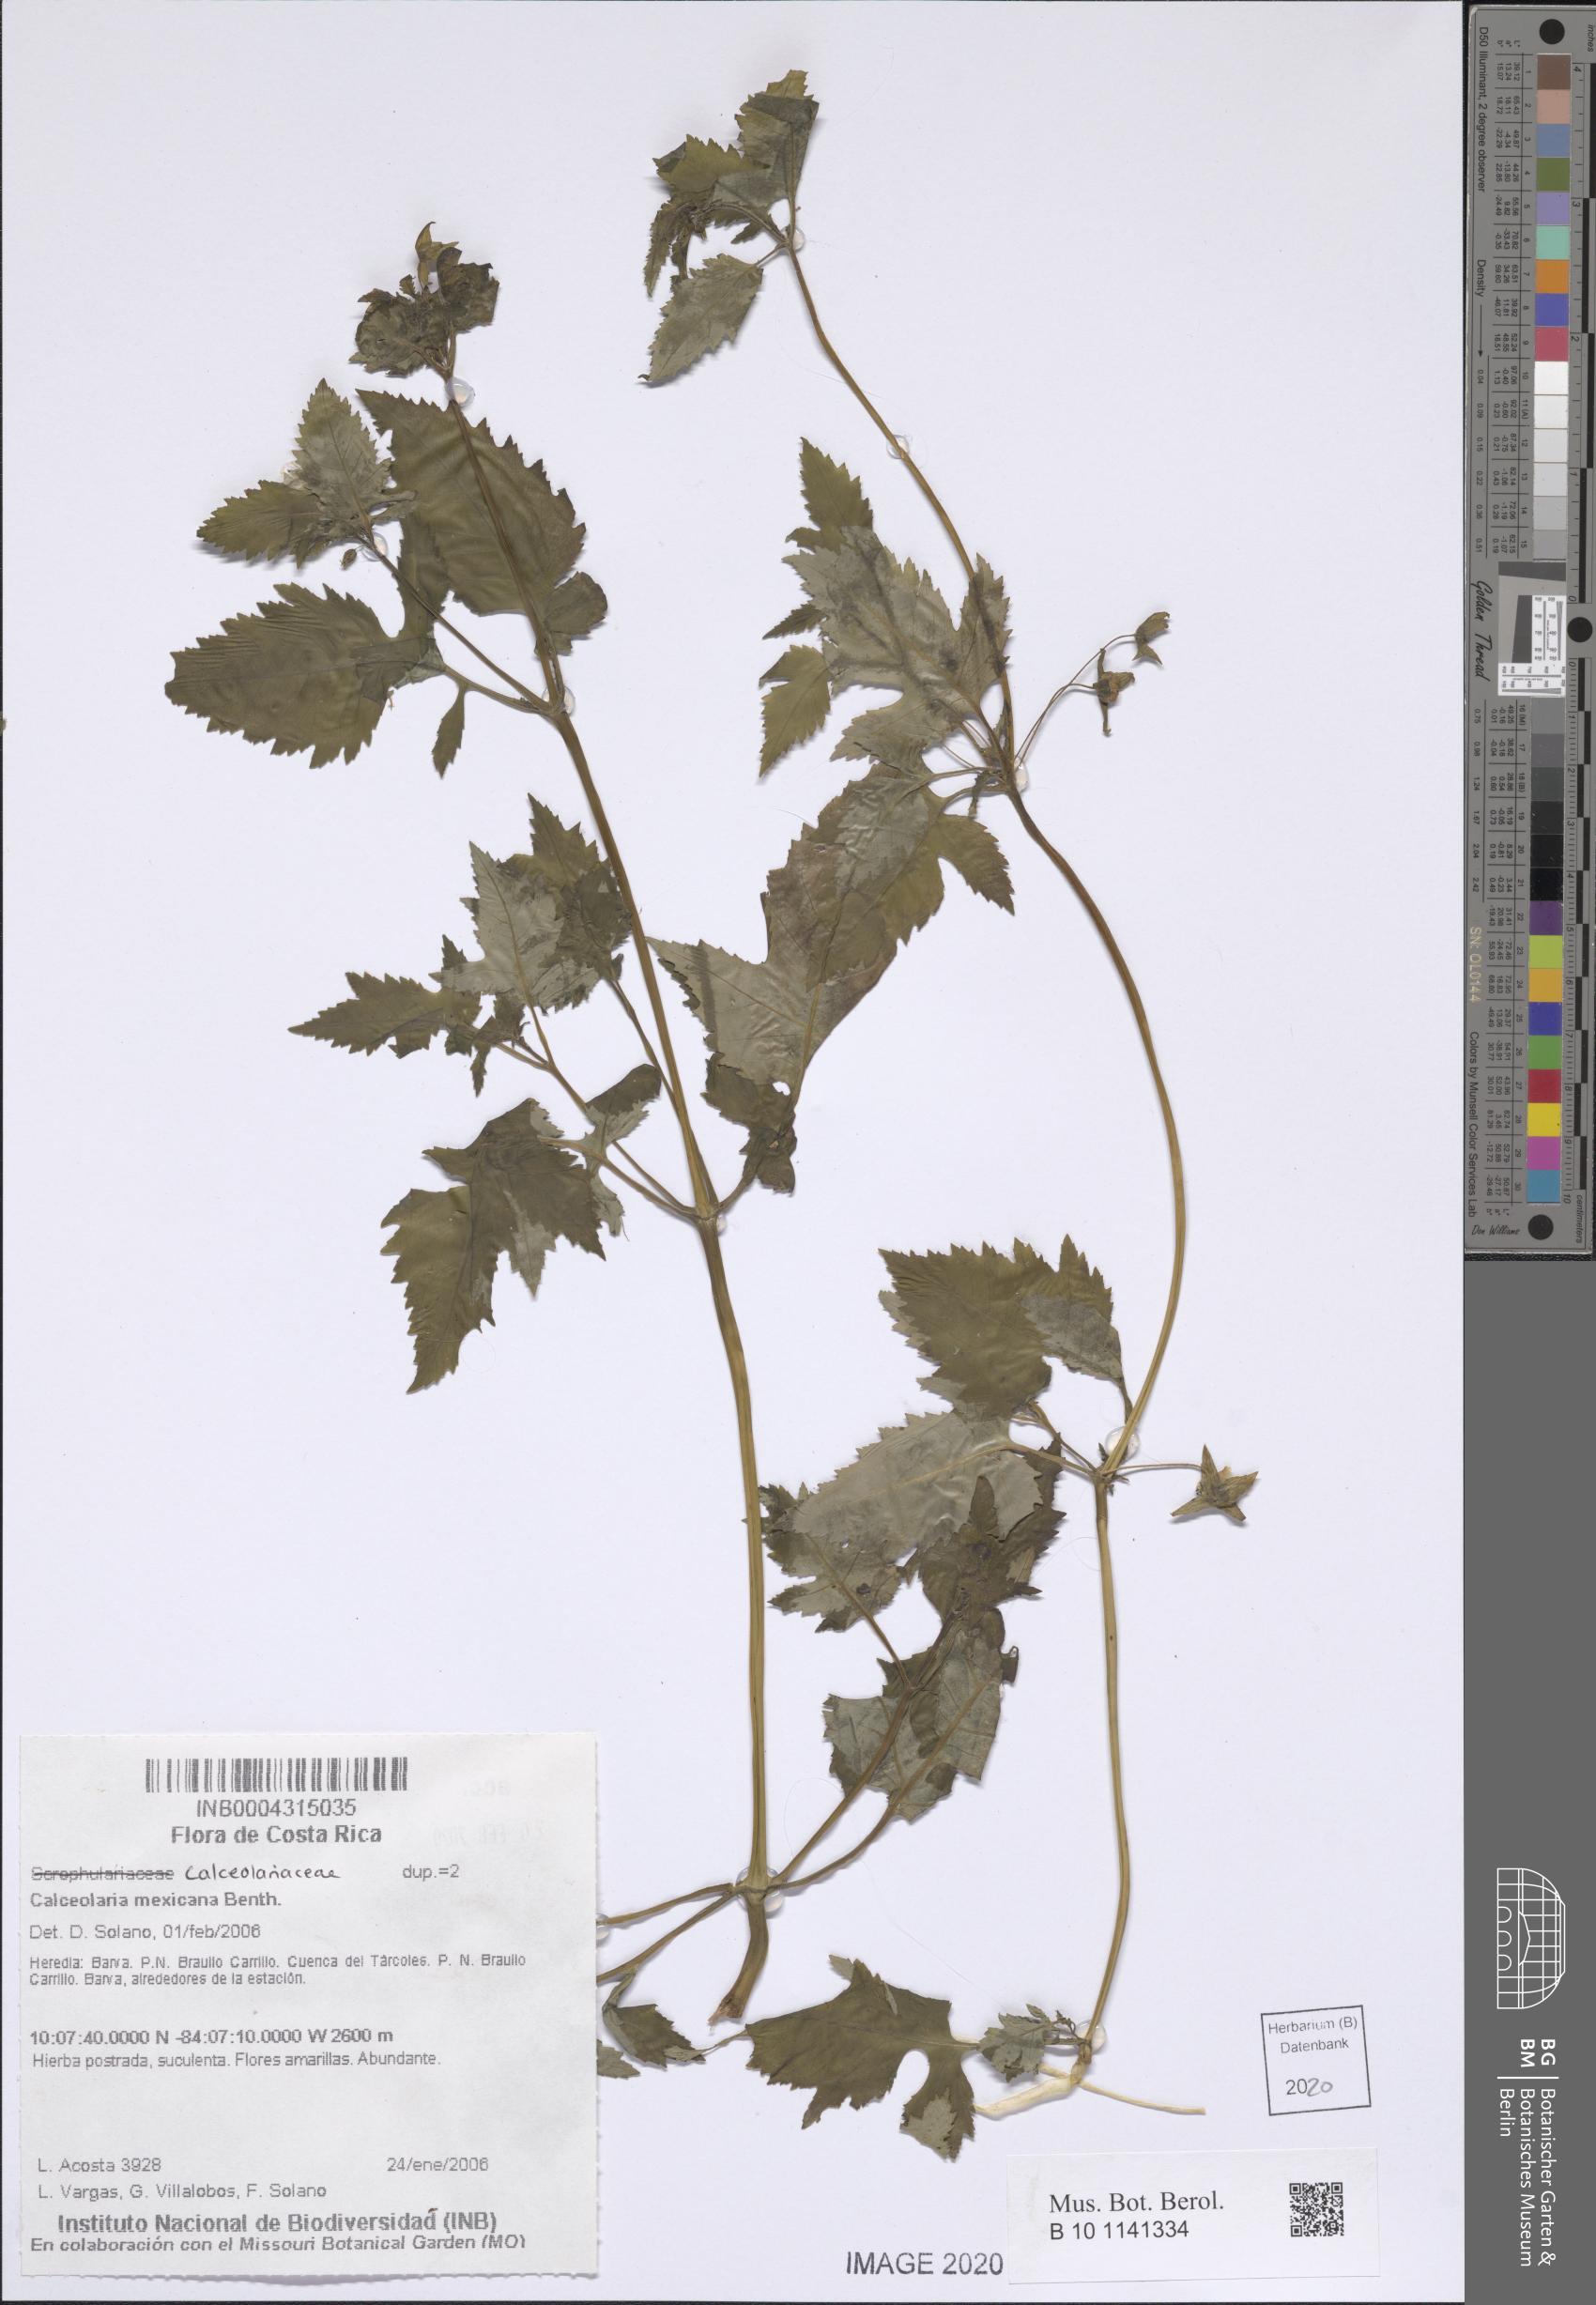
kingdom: Plantae
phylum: Tracheophyta
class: Magnoliopsida
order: Lamiales
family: Calceolariaceae
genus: Calceolaria
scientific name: Calceolaria mexicana
